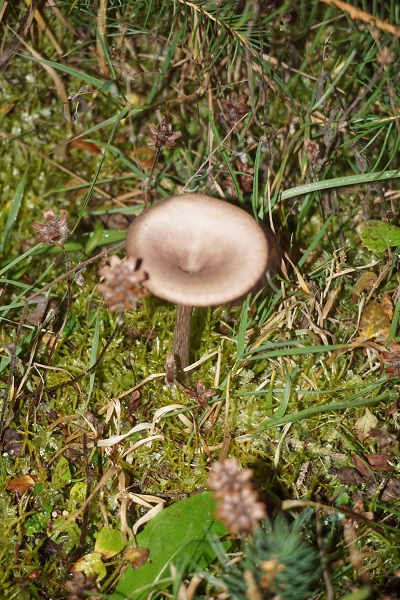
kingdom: Fungi
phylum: Basidiomycota
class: Agaricomycetes
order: Agaricales
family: Pseudoclitocybaceae
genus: Pseudoclitocybe
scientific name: Pseudoclitocybe cyathiformis
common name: almindelig bægertragthat
